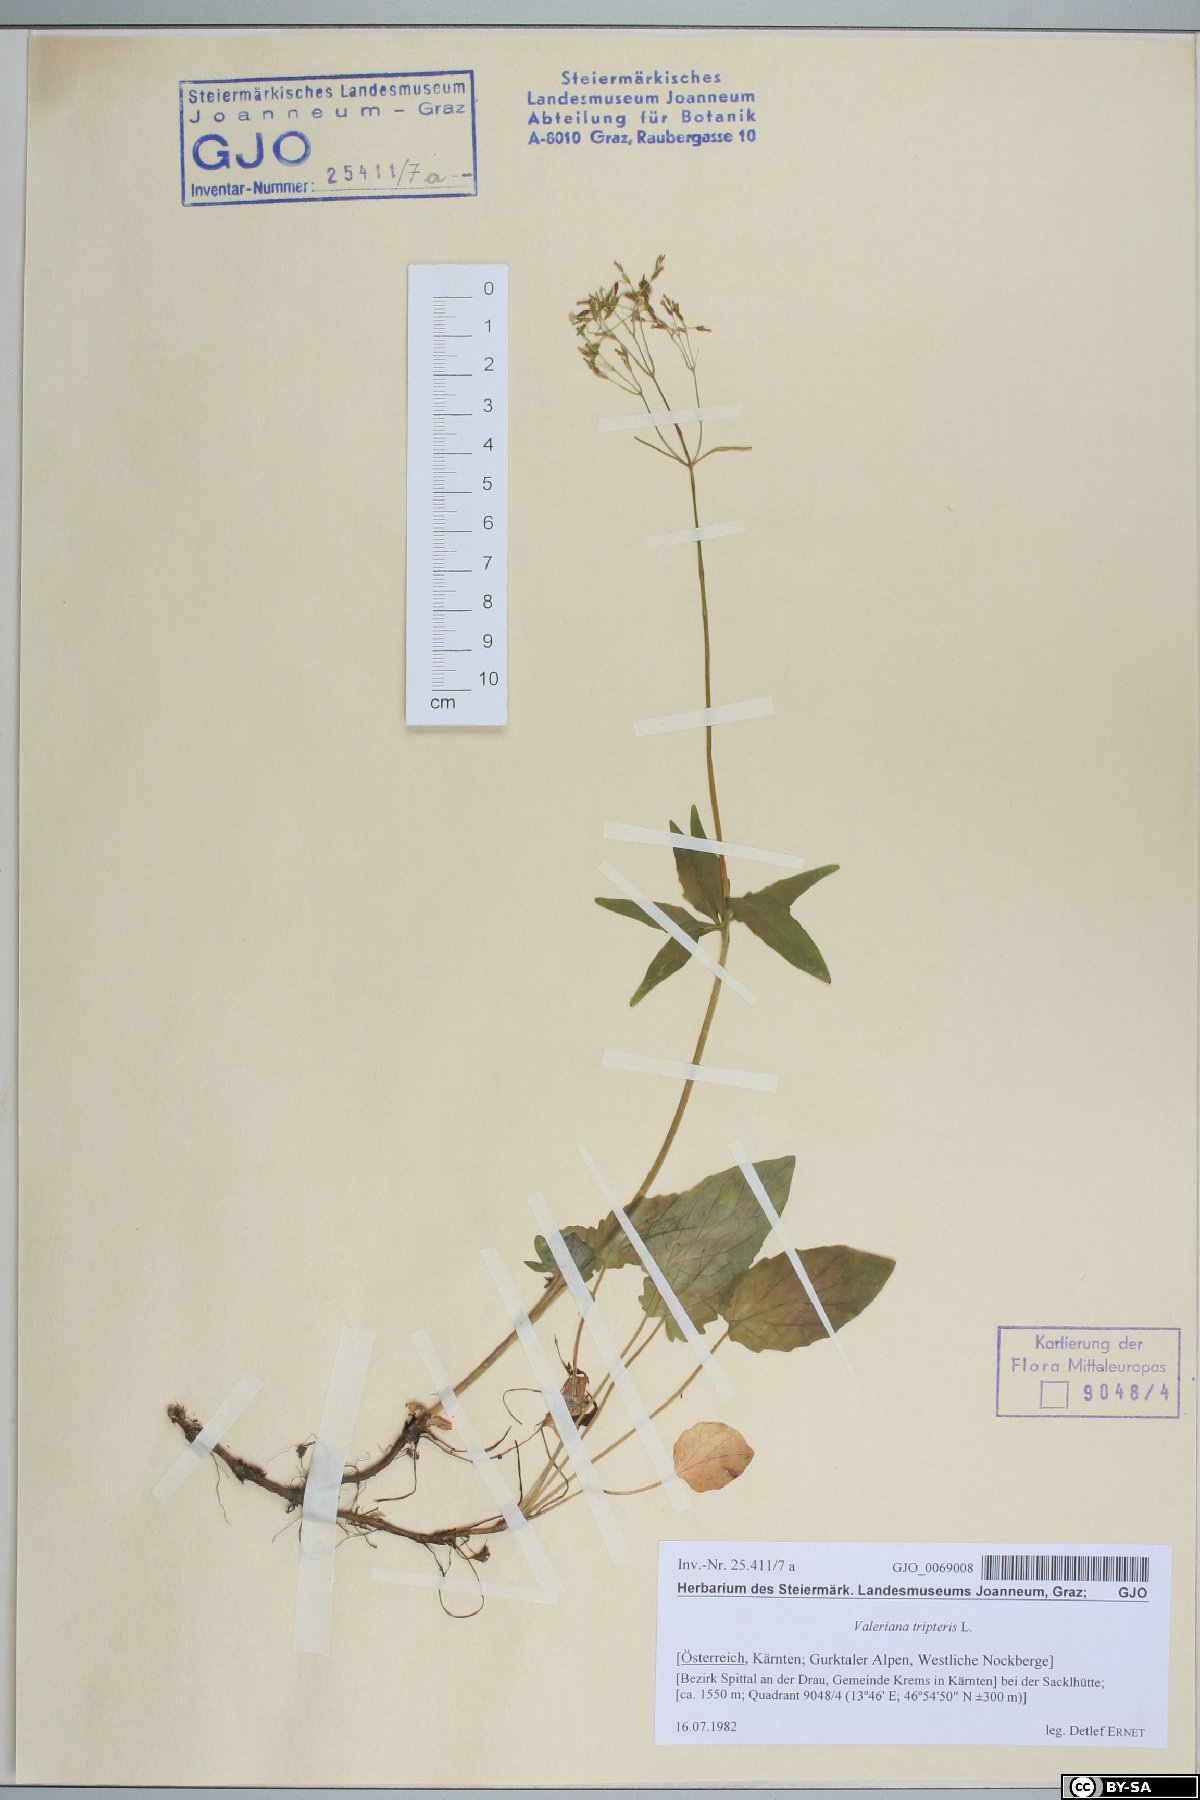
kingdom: Plantae
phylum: Tracheophyta
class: Magnoliopsida
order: Dipsacales
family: Caprifoliaceae
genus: Valeriana
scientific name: Valeriana tripteris
